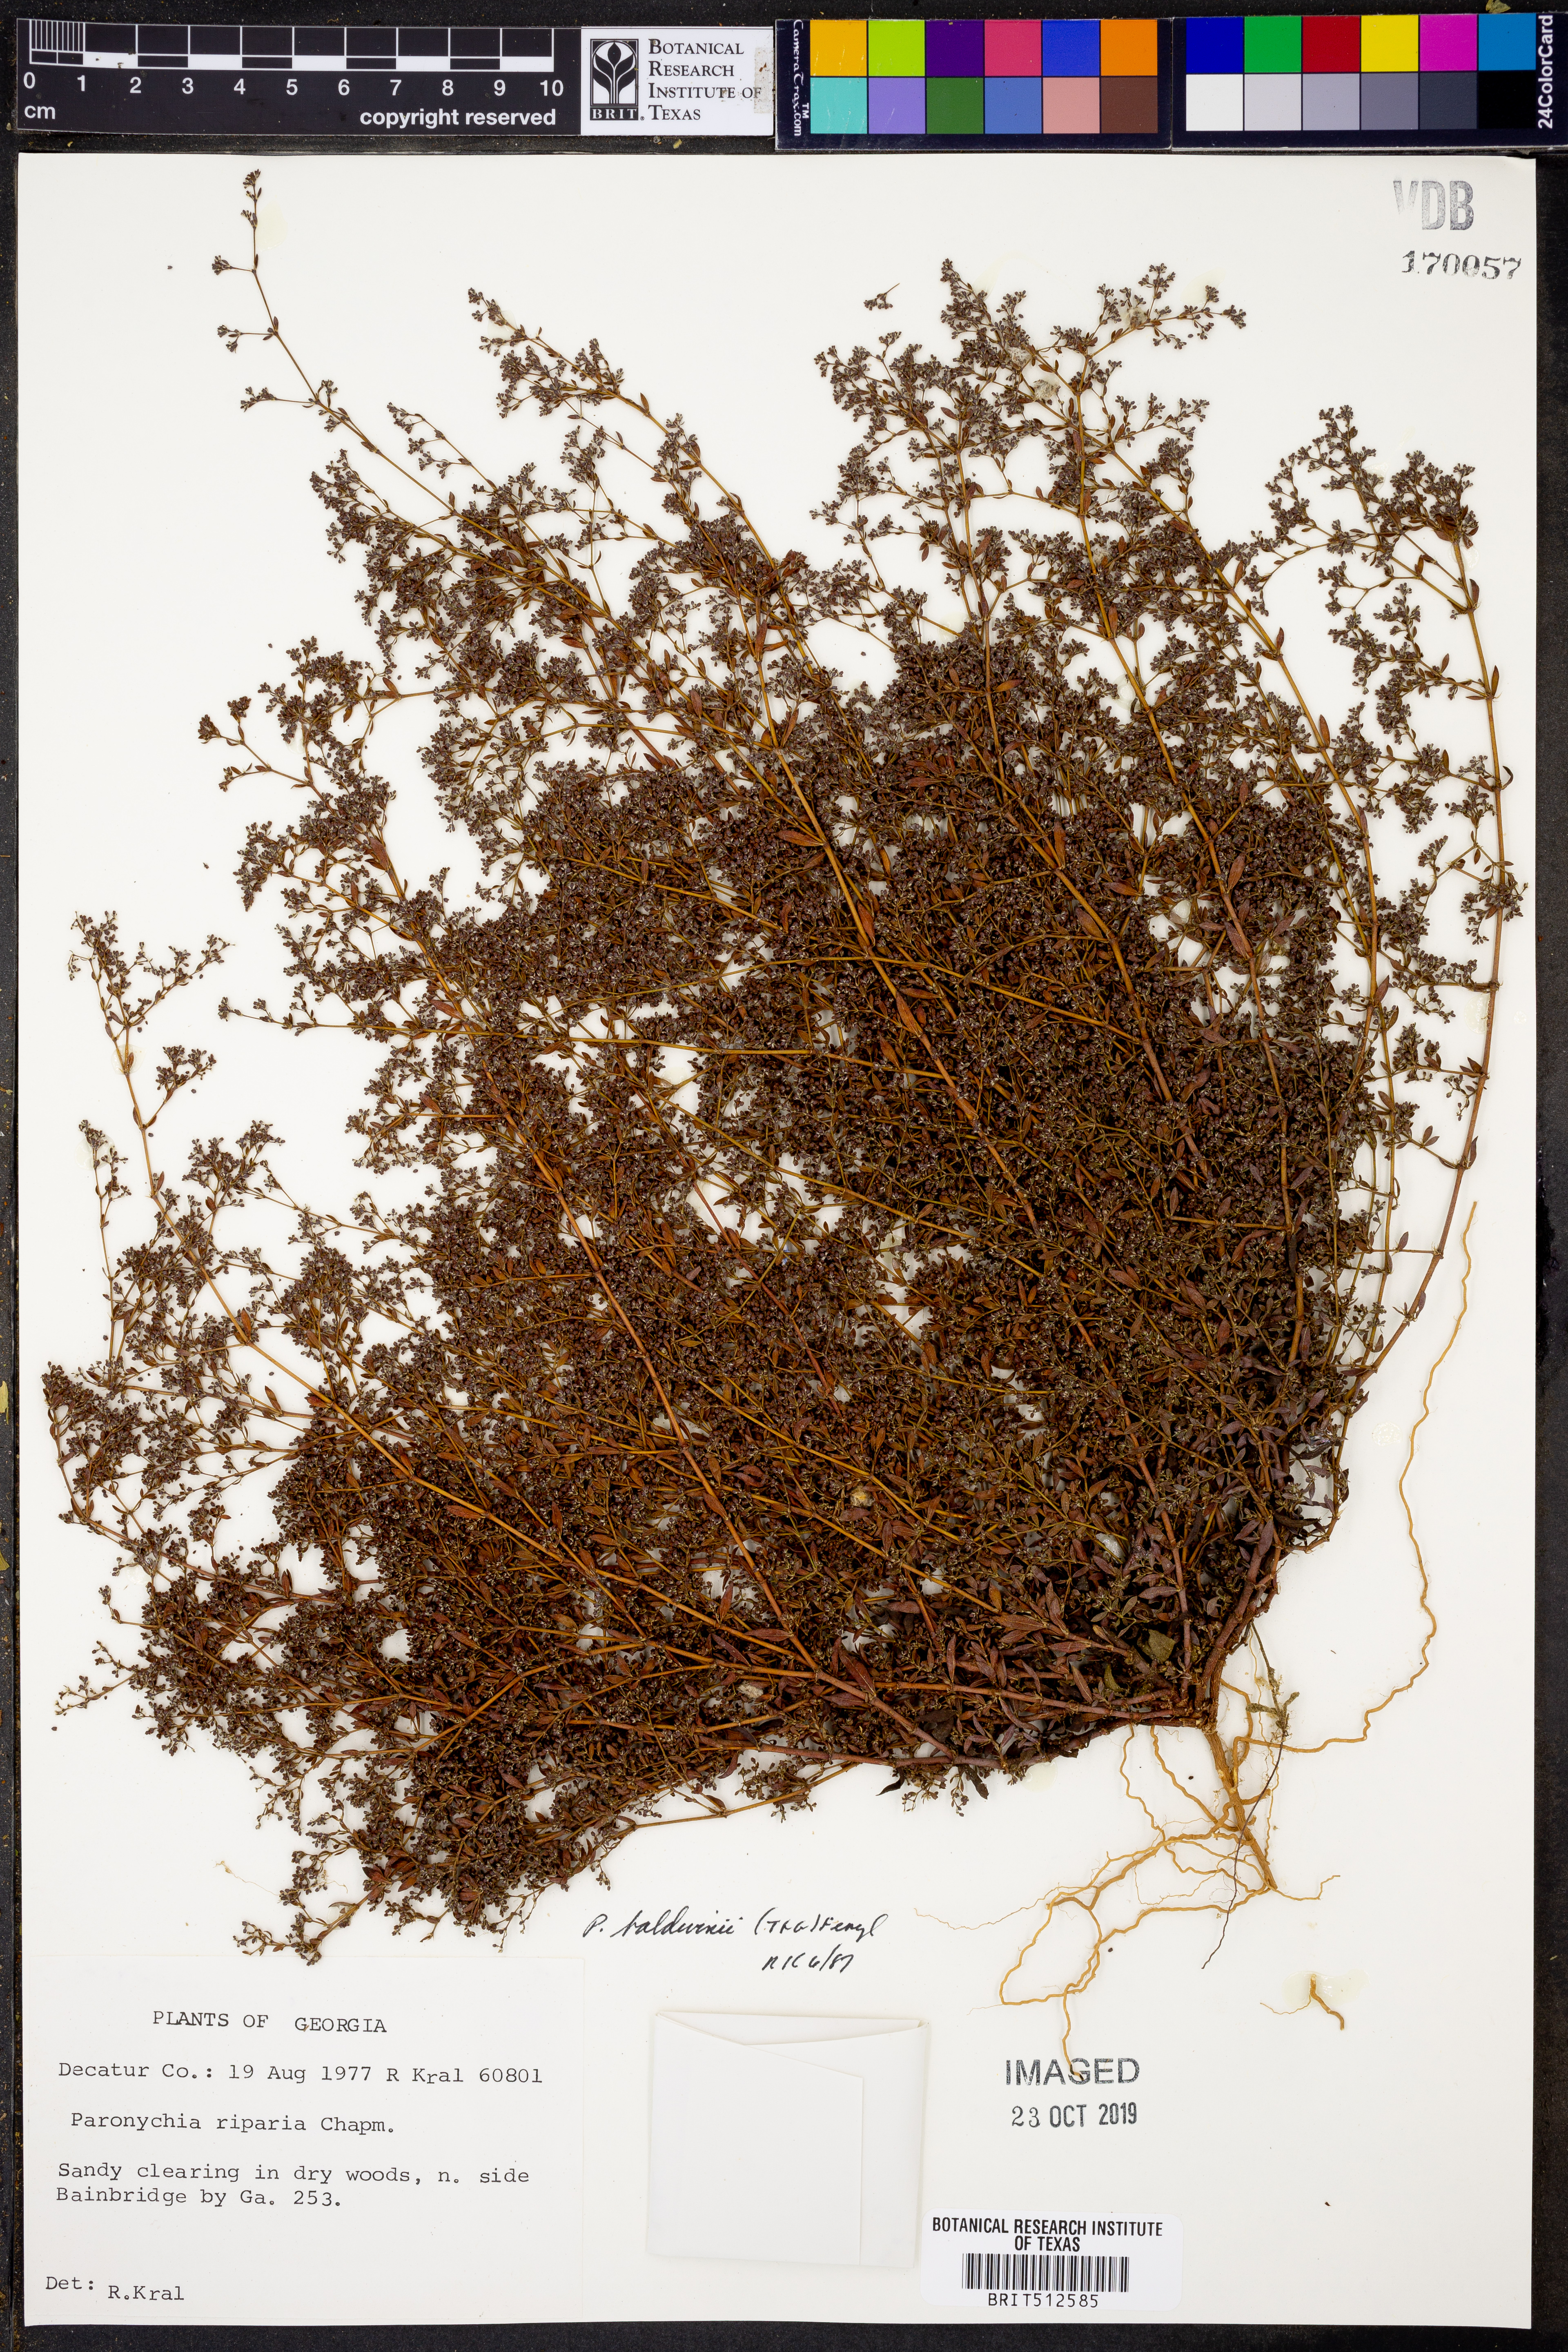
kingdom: Plantae
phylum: Tracheophyta
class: Magnoliopsida
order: Caryophyllales
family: Caryophyllaceae
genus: Paronychia
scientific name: Paronychia baldwinii
